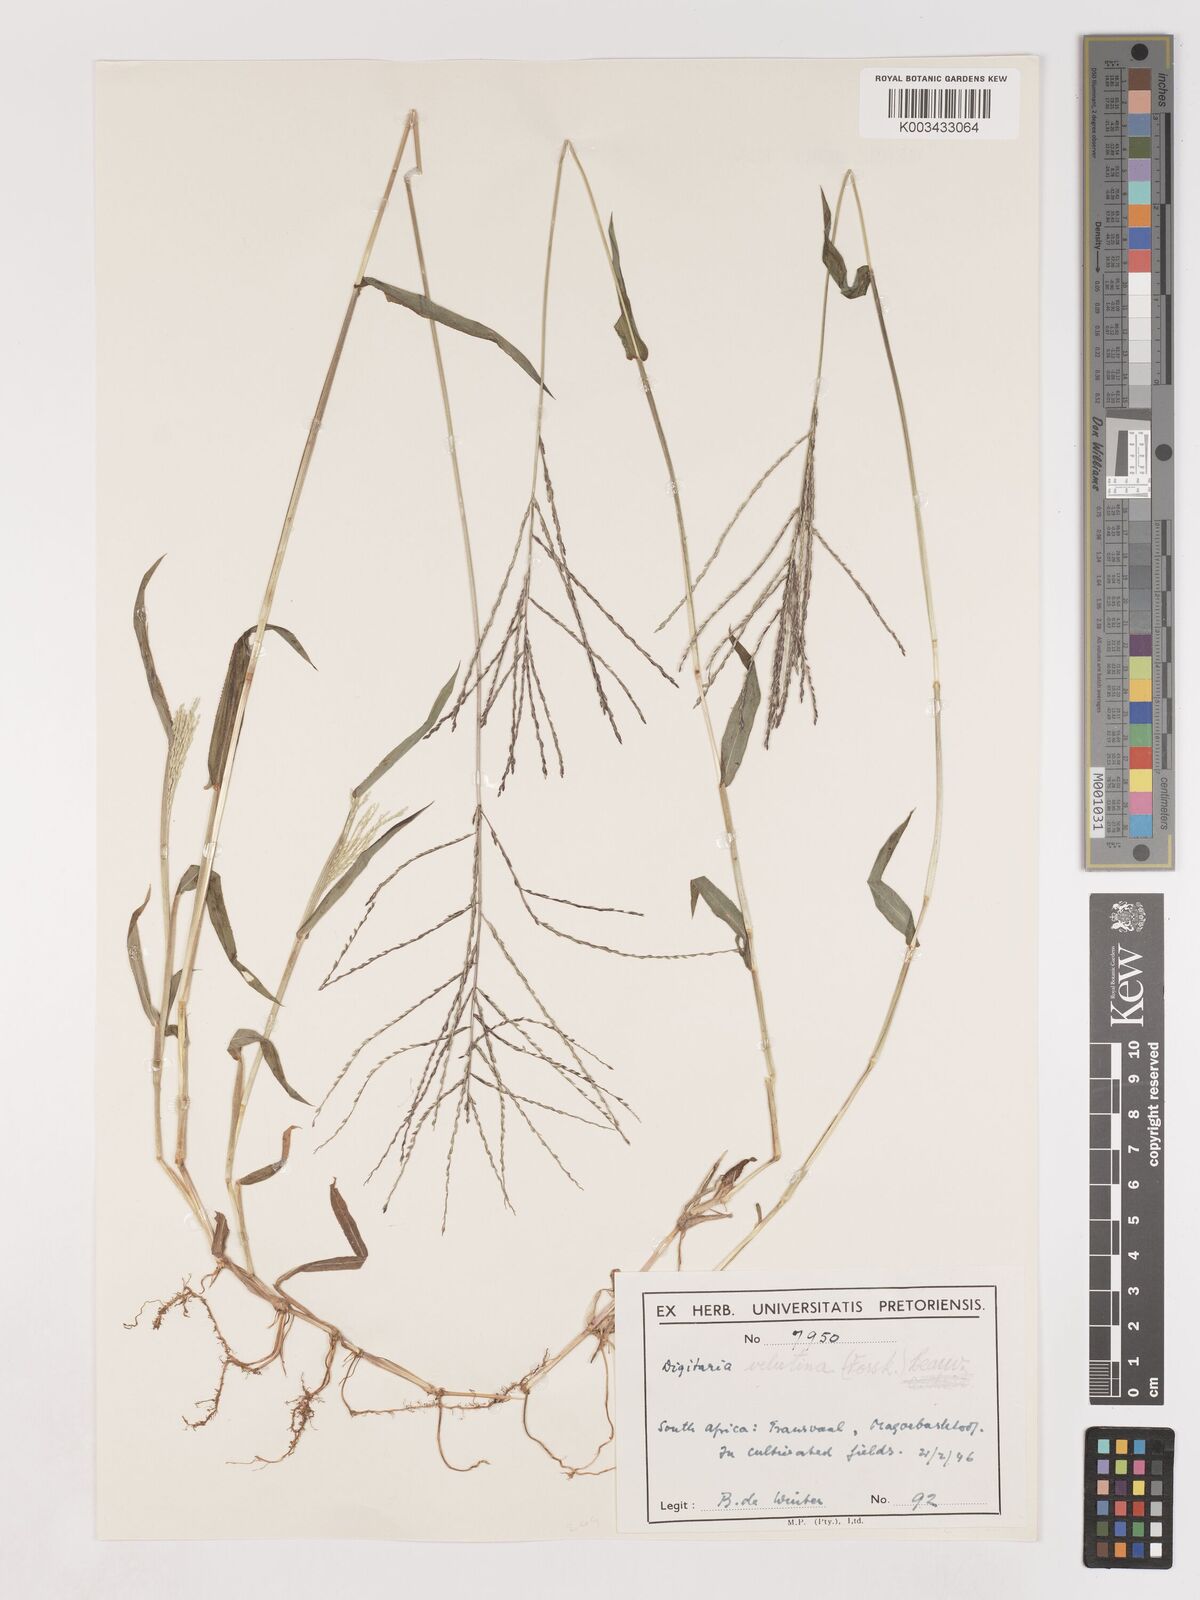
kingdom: Plantae
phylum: Tracheophyta
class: Liliopsida
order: Poales
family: Poaceae
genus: Digitaria
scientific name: Digitaria velutina
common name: Long-plume finger grass
